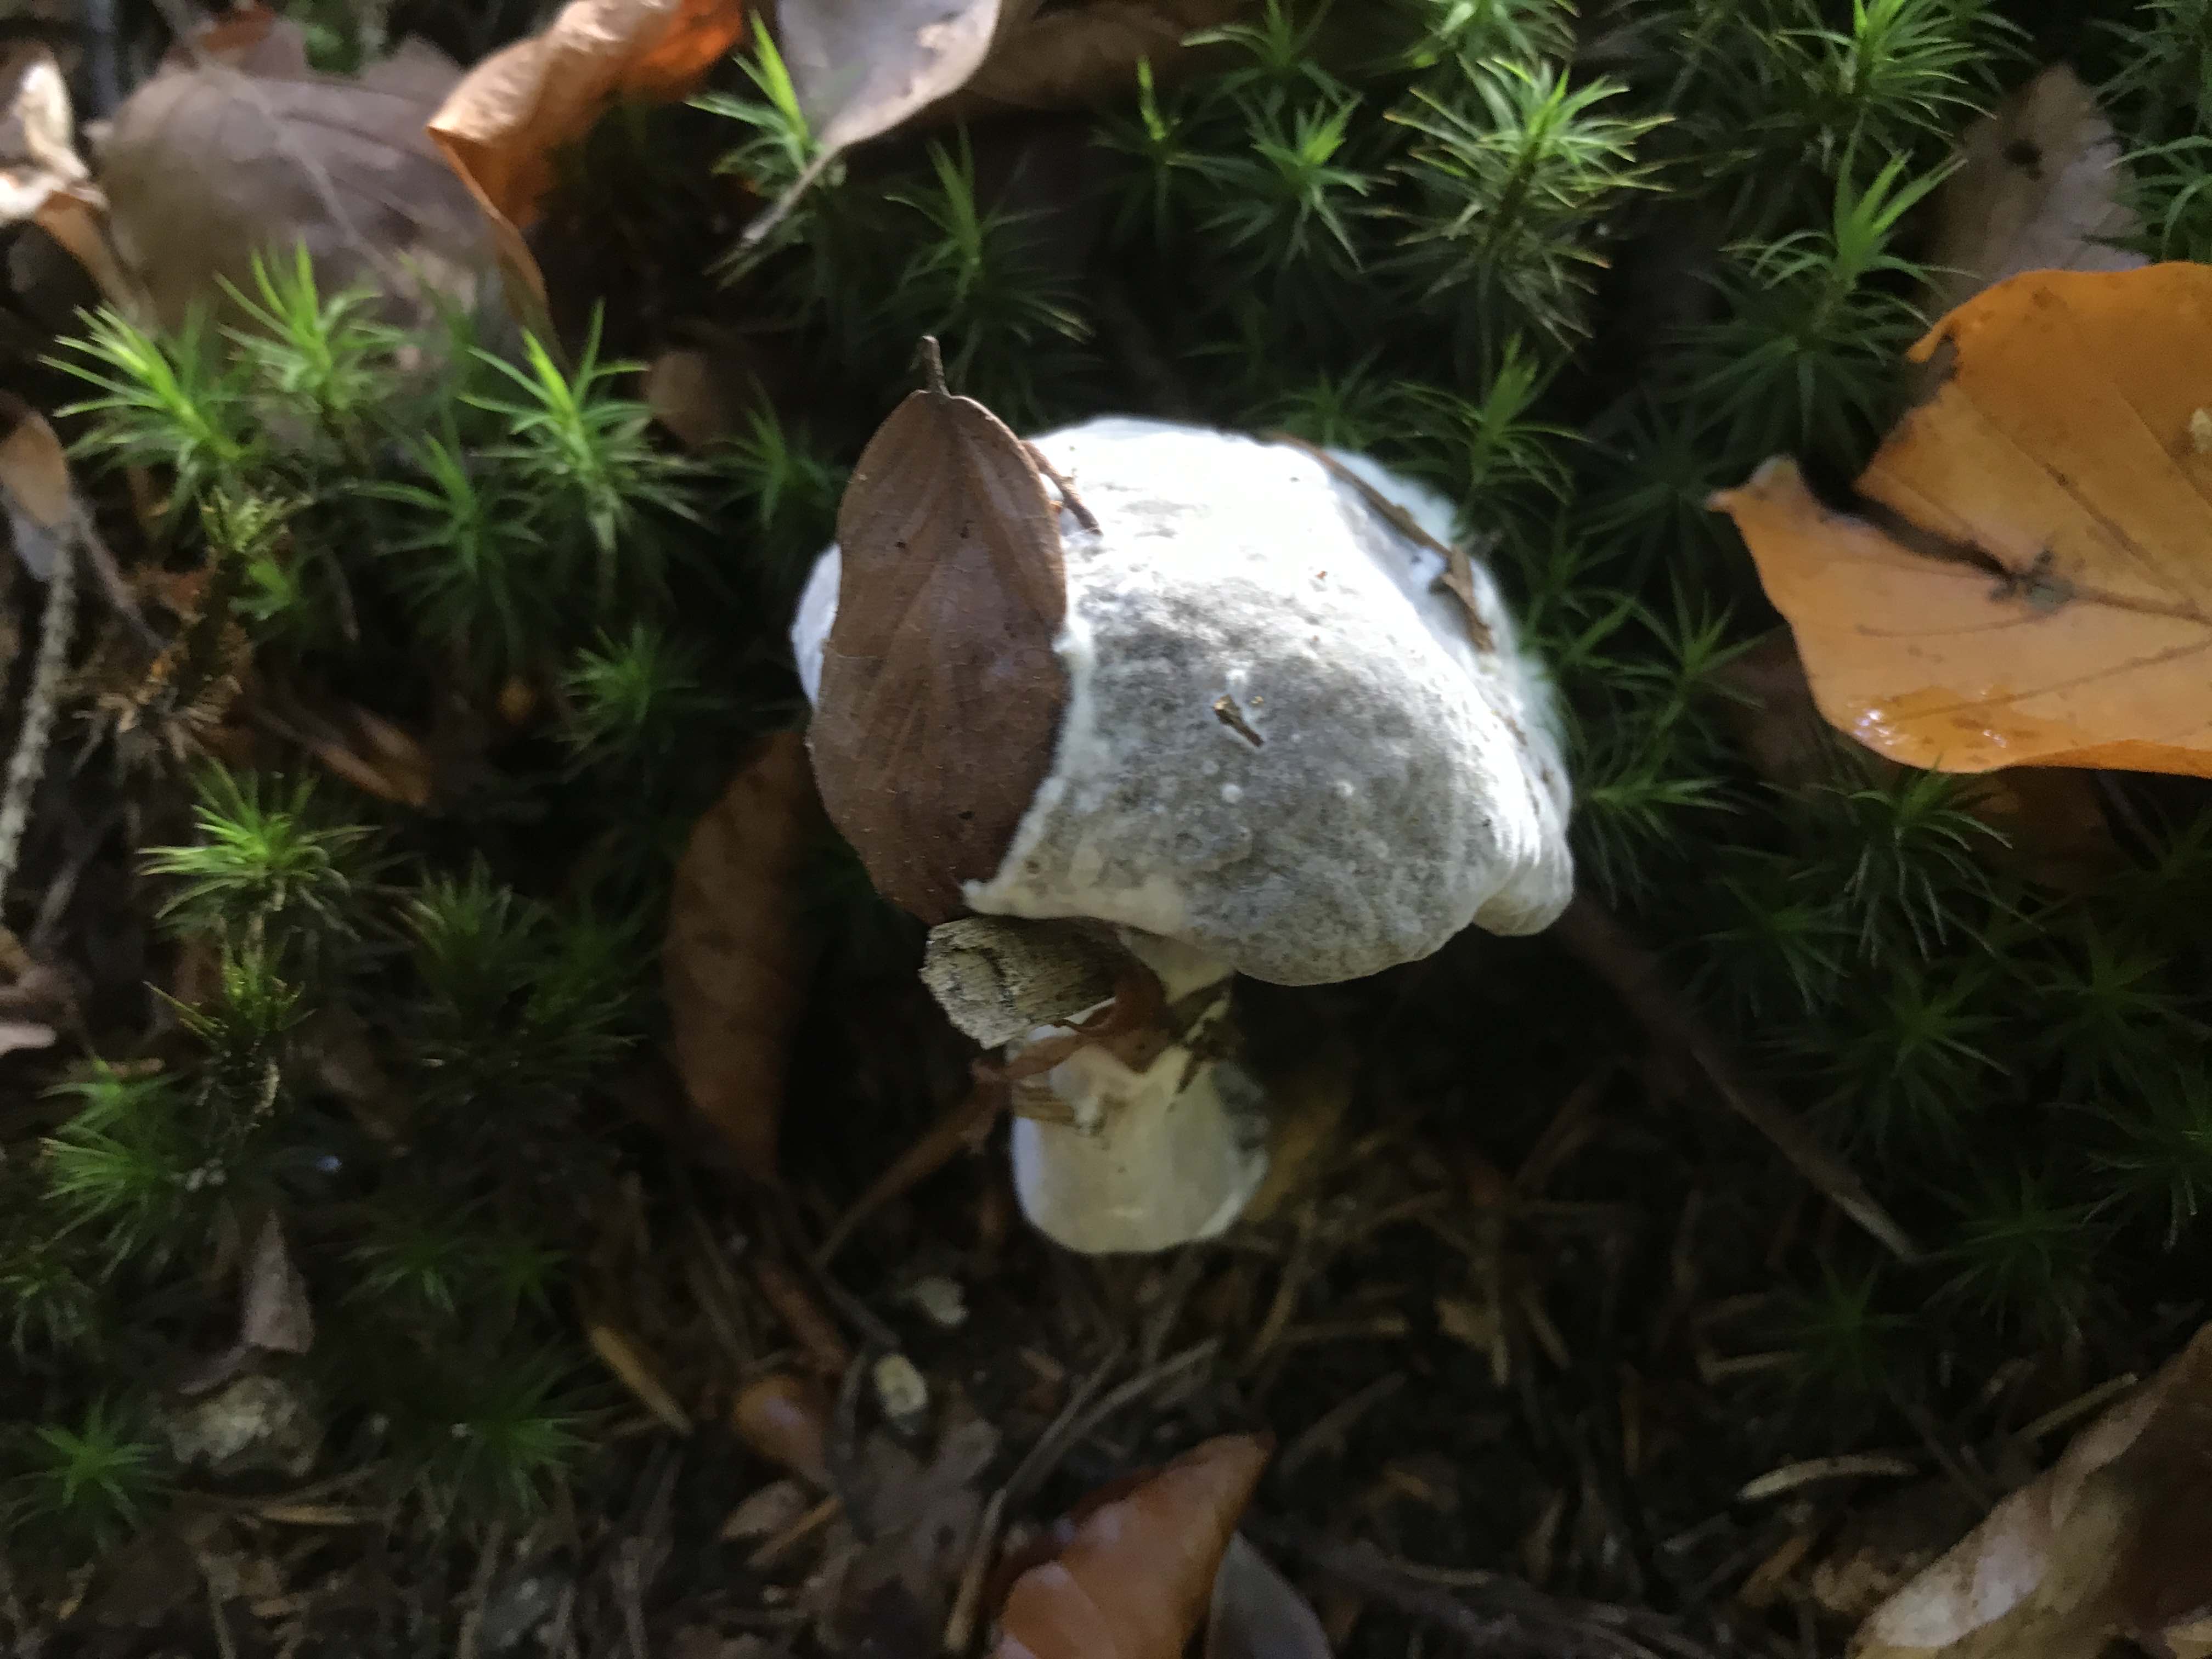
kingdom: Fungi
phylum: Ascomycota
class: Sordariomycetes
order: Hypocreales
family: Hypocreaceae
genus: Hypomyces
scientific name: Hypomyces microspermus
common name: dværgrørhat-snylteskorpe
